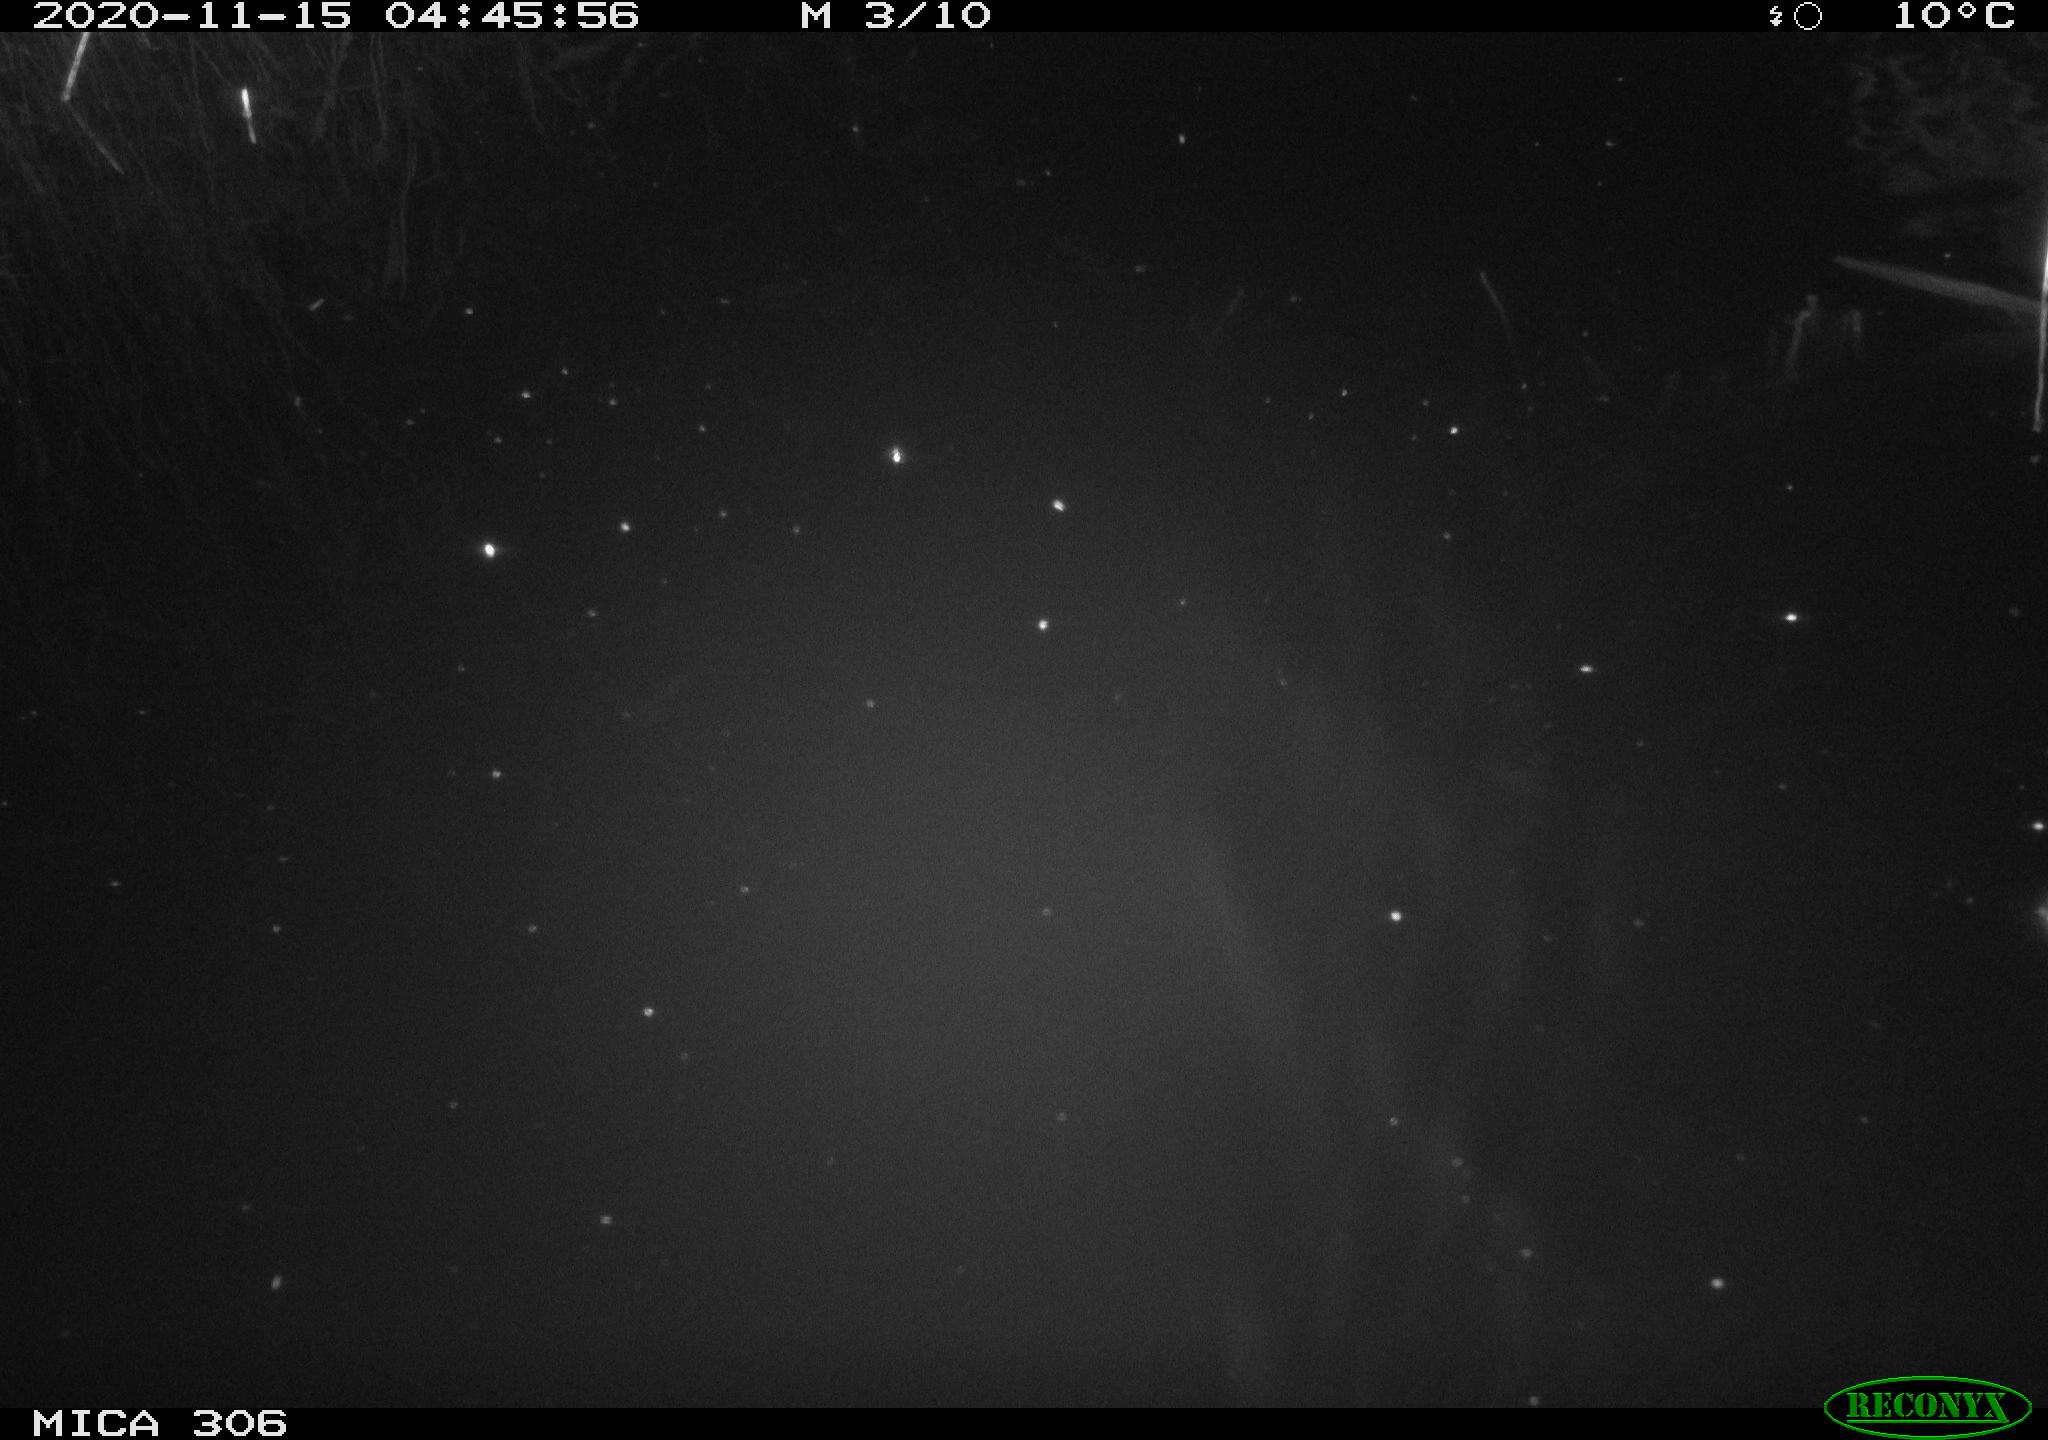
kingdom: Animalia
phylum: Chordata
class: Mammalia
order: Rodentia
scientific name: Rodentia
